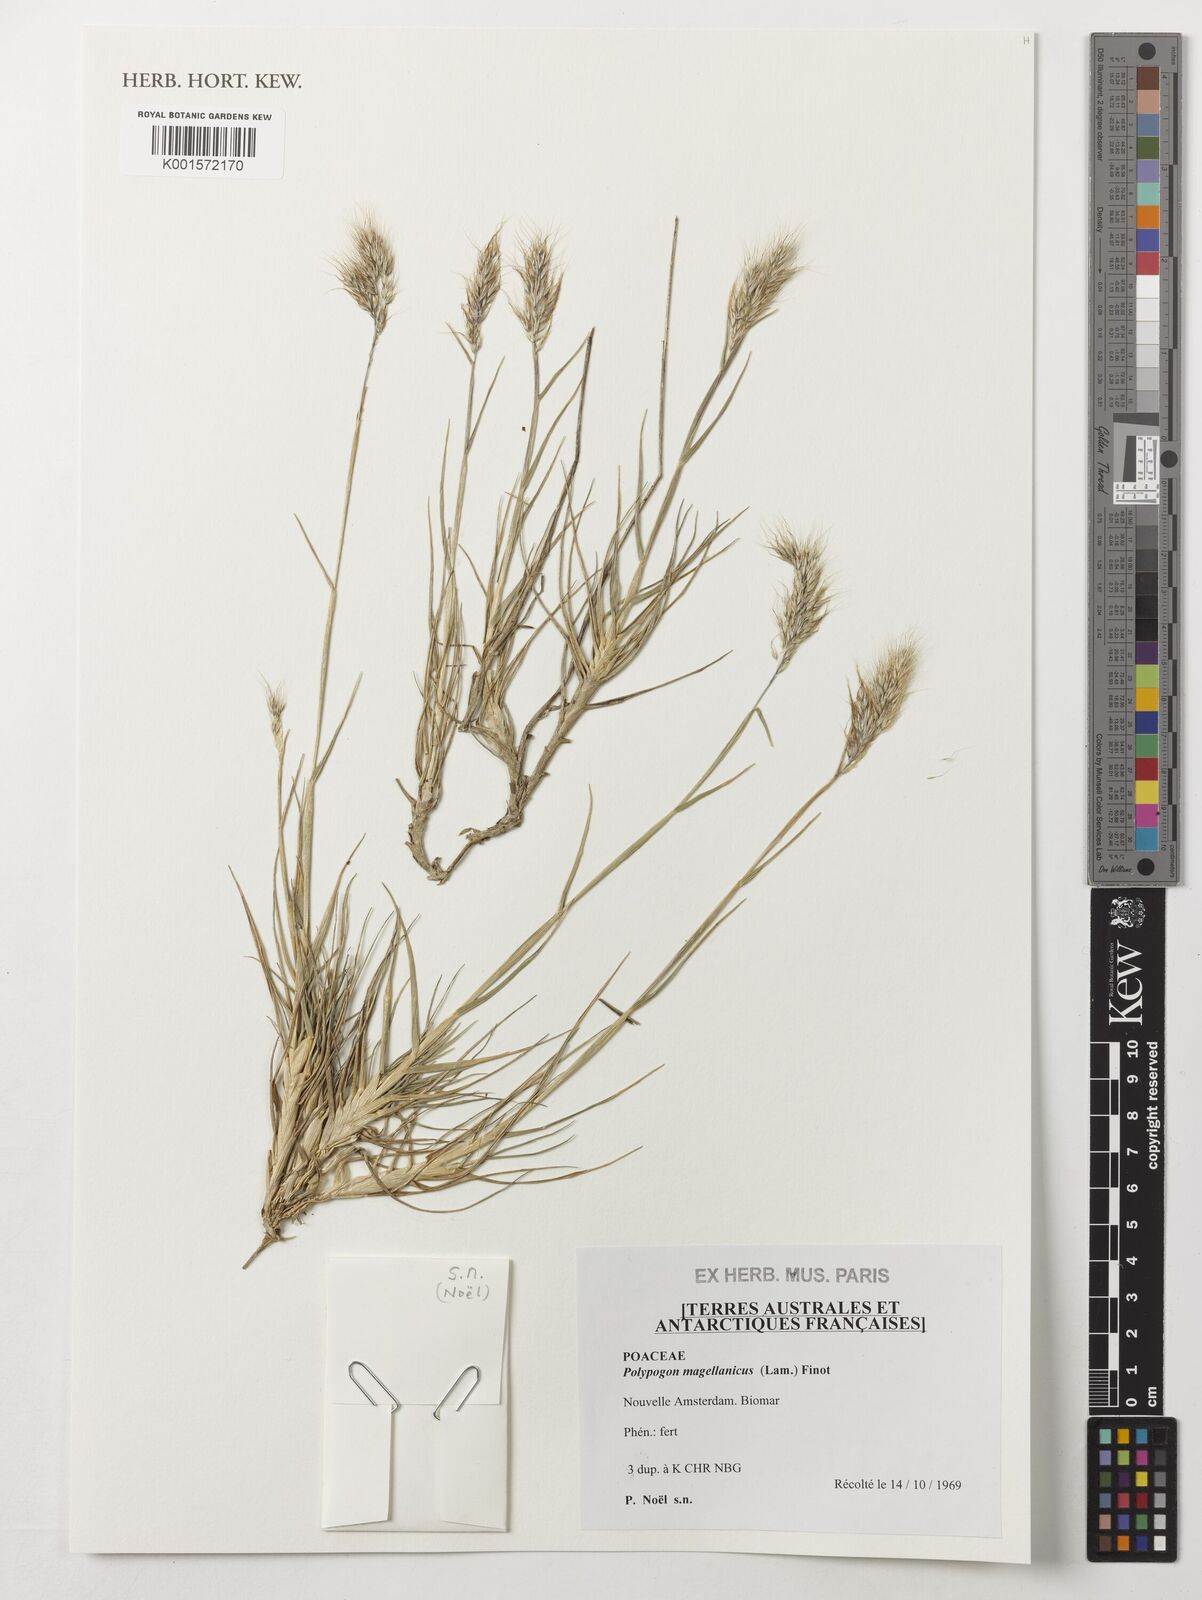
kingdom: Plantae
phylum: Tracheophyta
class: Liliopsida
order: Poales
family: Poaceae
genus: Polypogon
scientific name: Polypogon magellanicus
